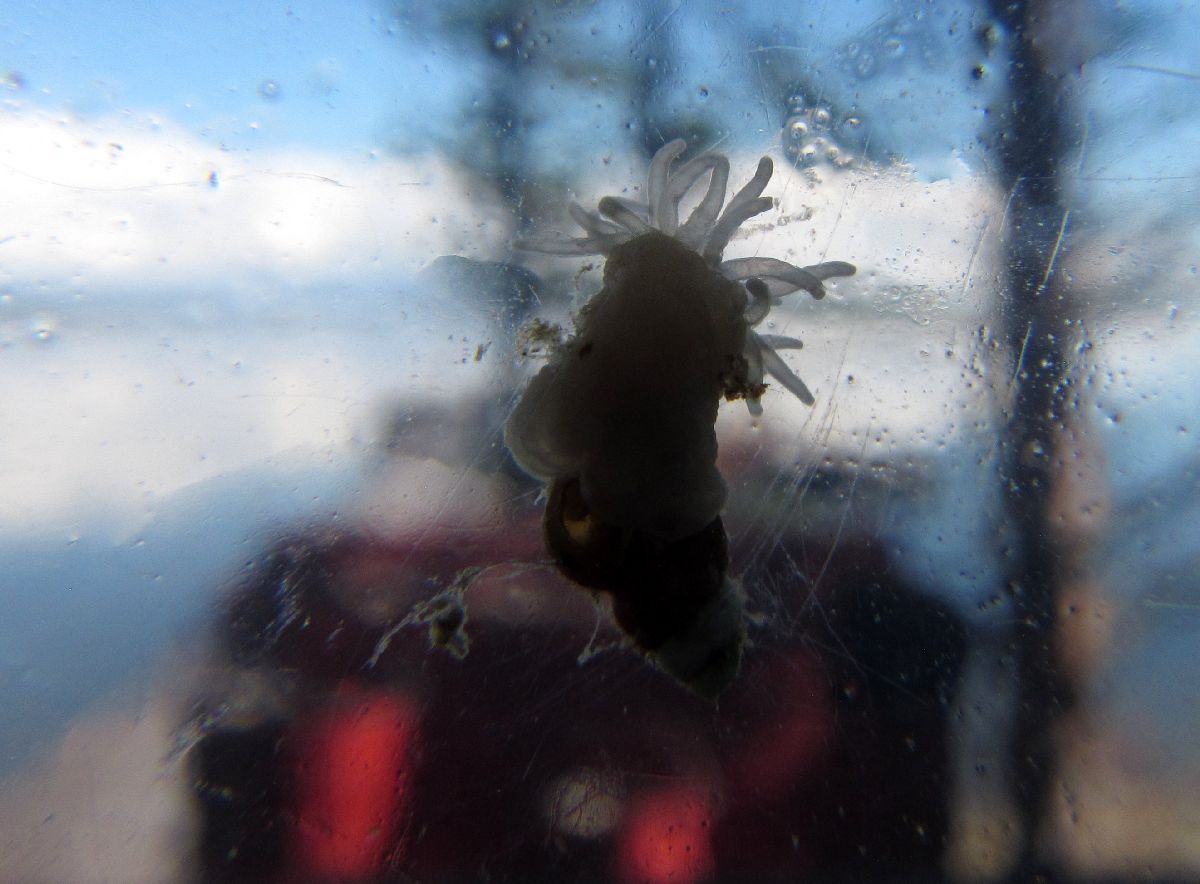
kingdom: Animalia
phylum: Cnidaria
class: Anthozoa
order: Actiniaria
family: Actiniidae
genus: Aulactinia
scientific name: Aulactinia stella
